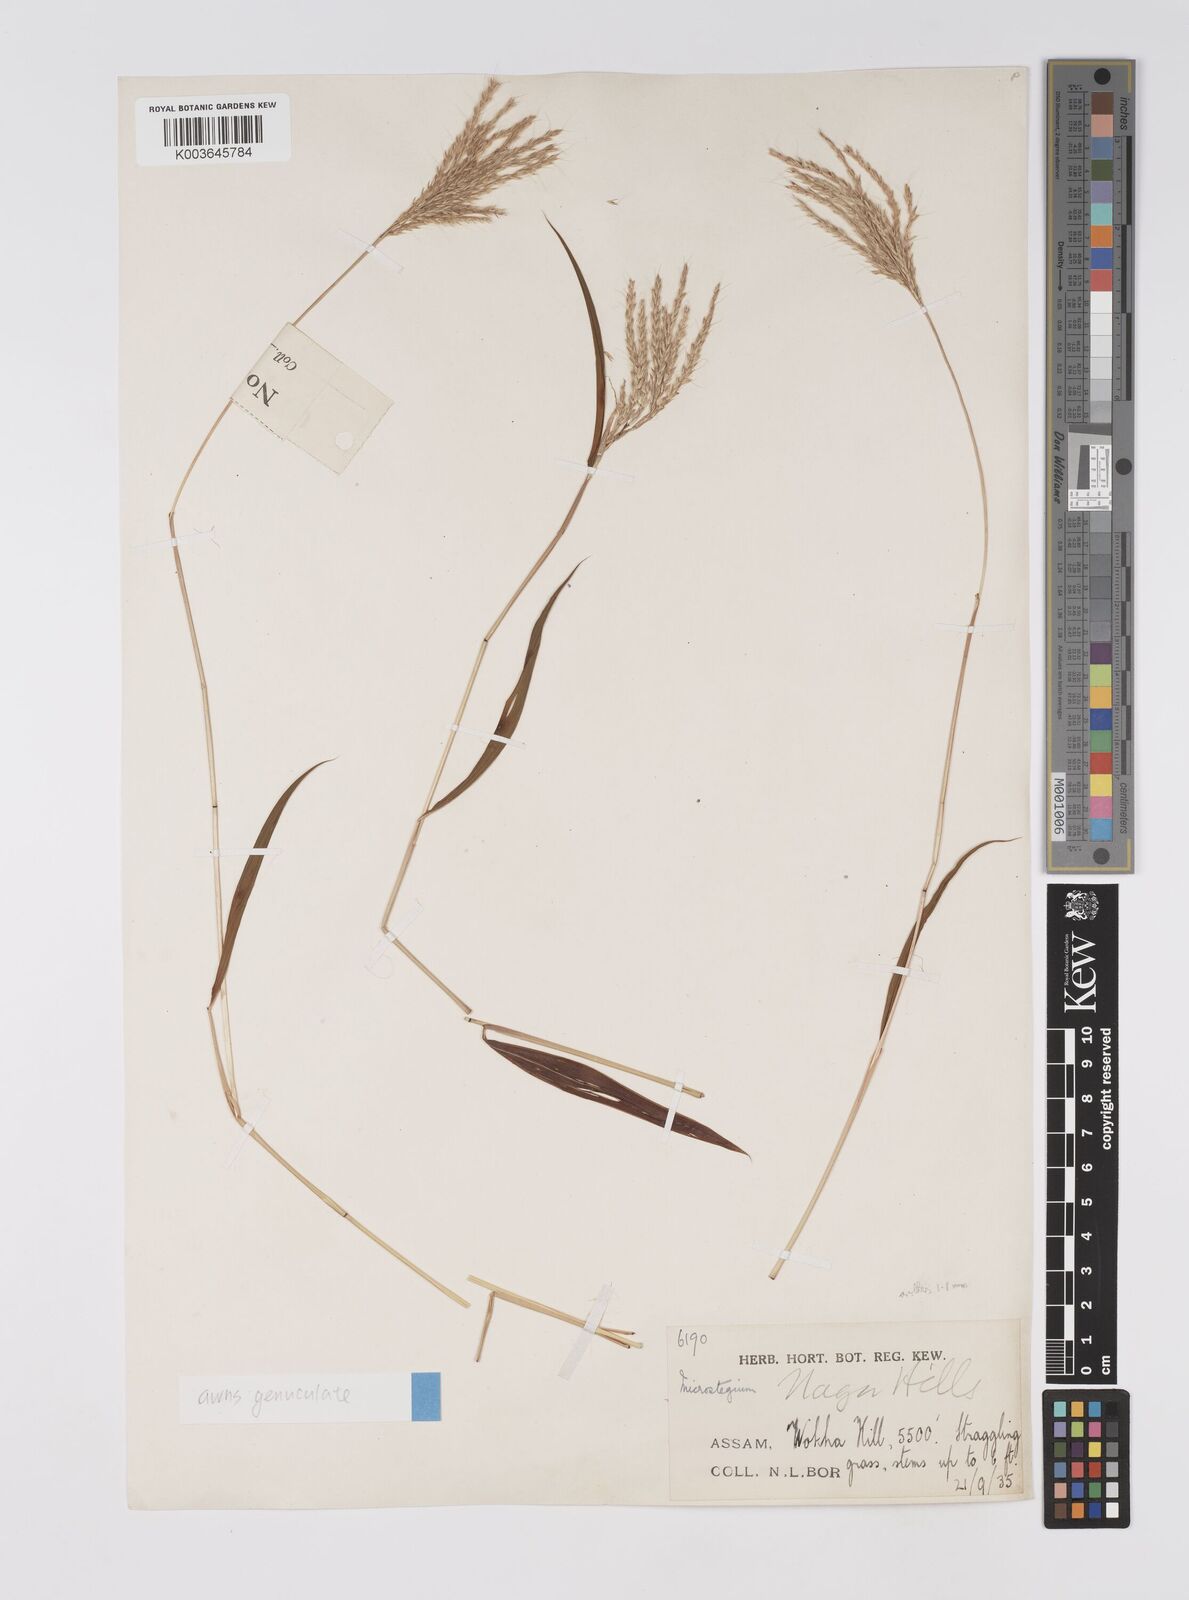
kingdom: Plantae
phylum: Tracheophyta
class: Liliopsida
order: Poales
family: Poaceae
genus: Microstegium
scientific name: Microstegium fasciculatum
